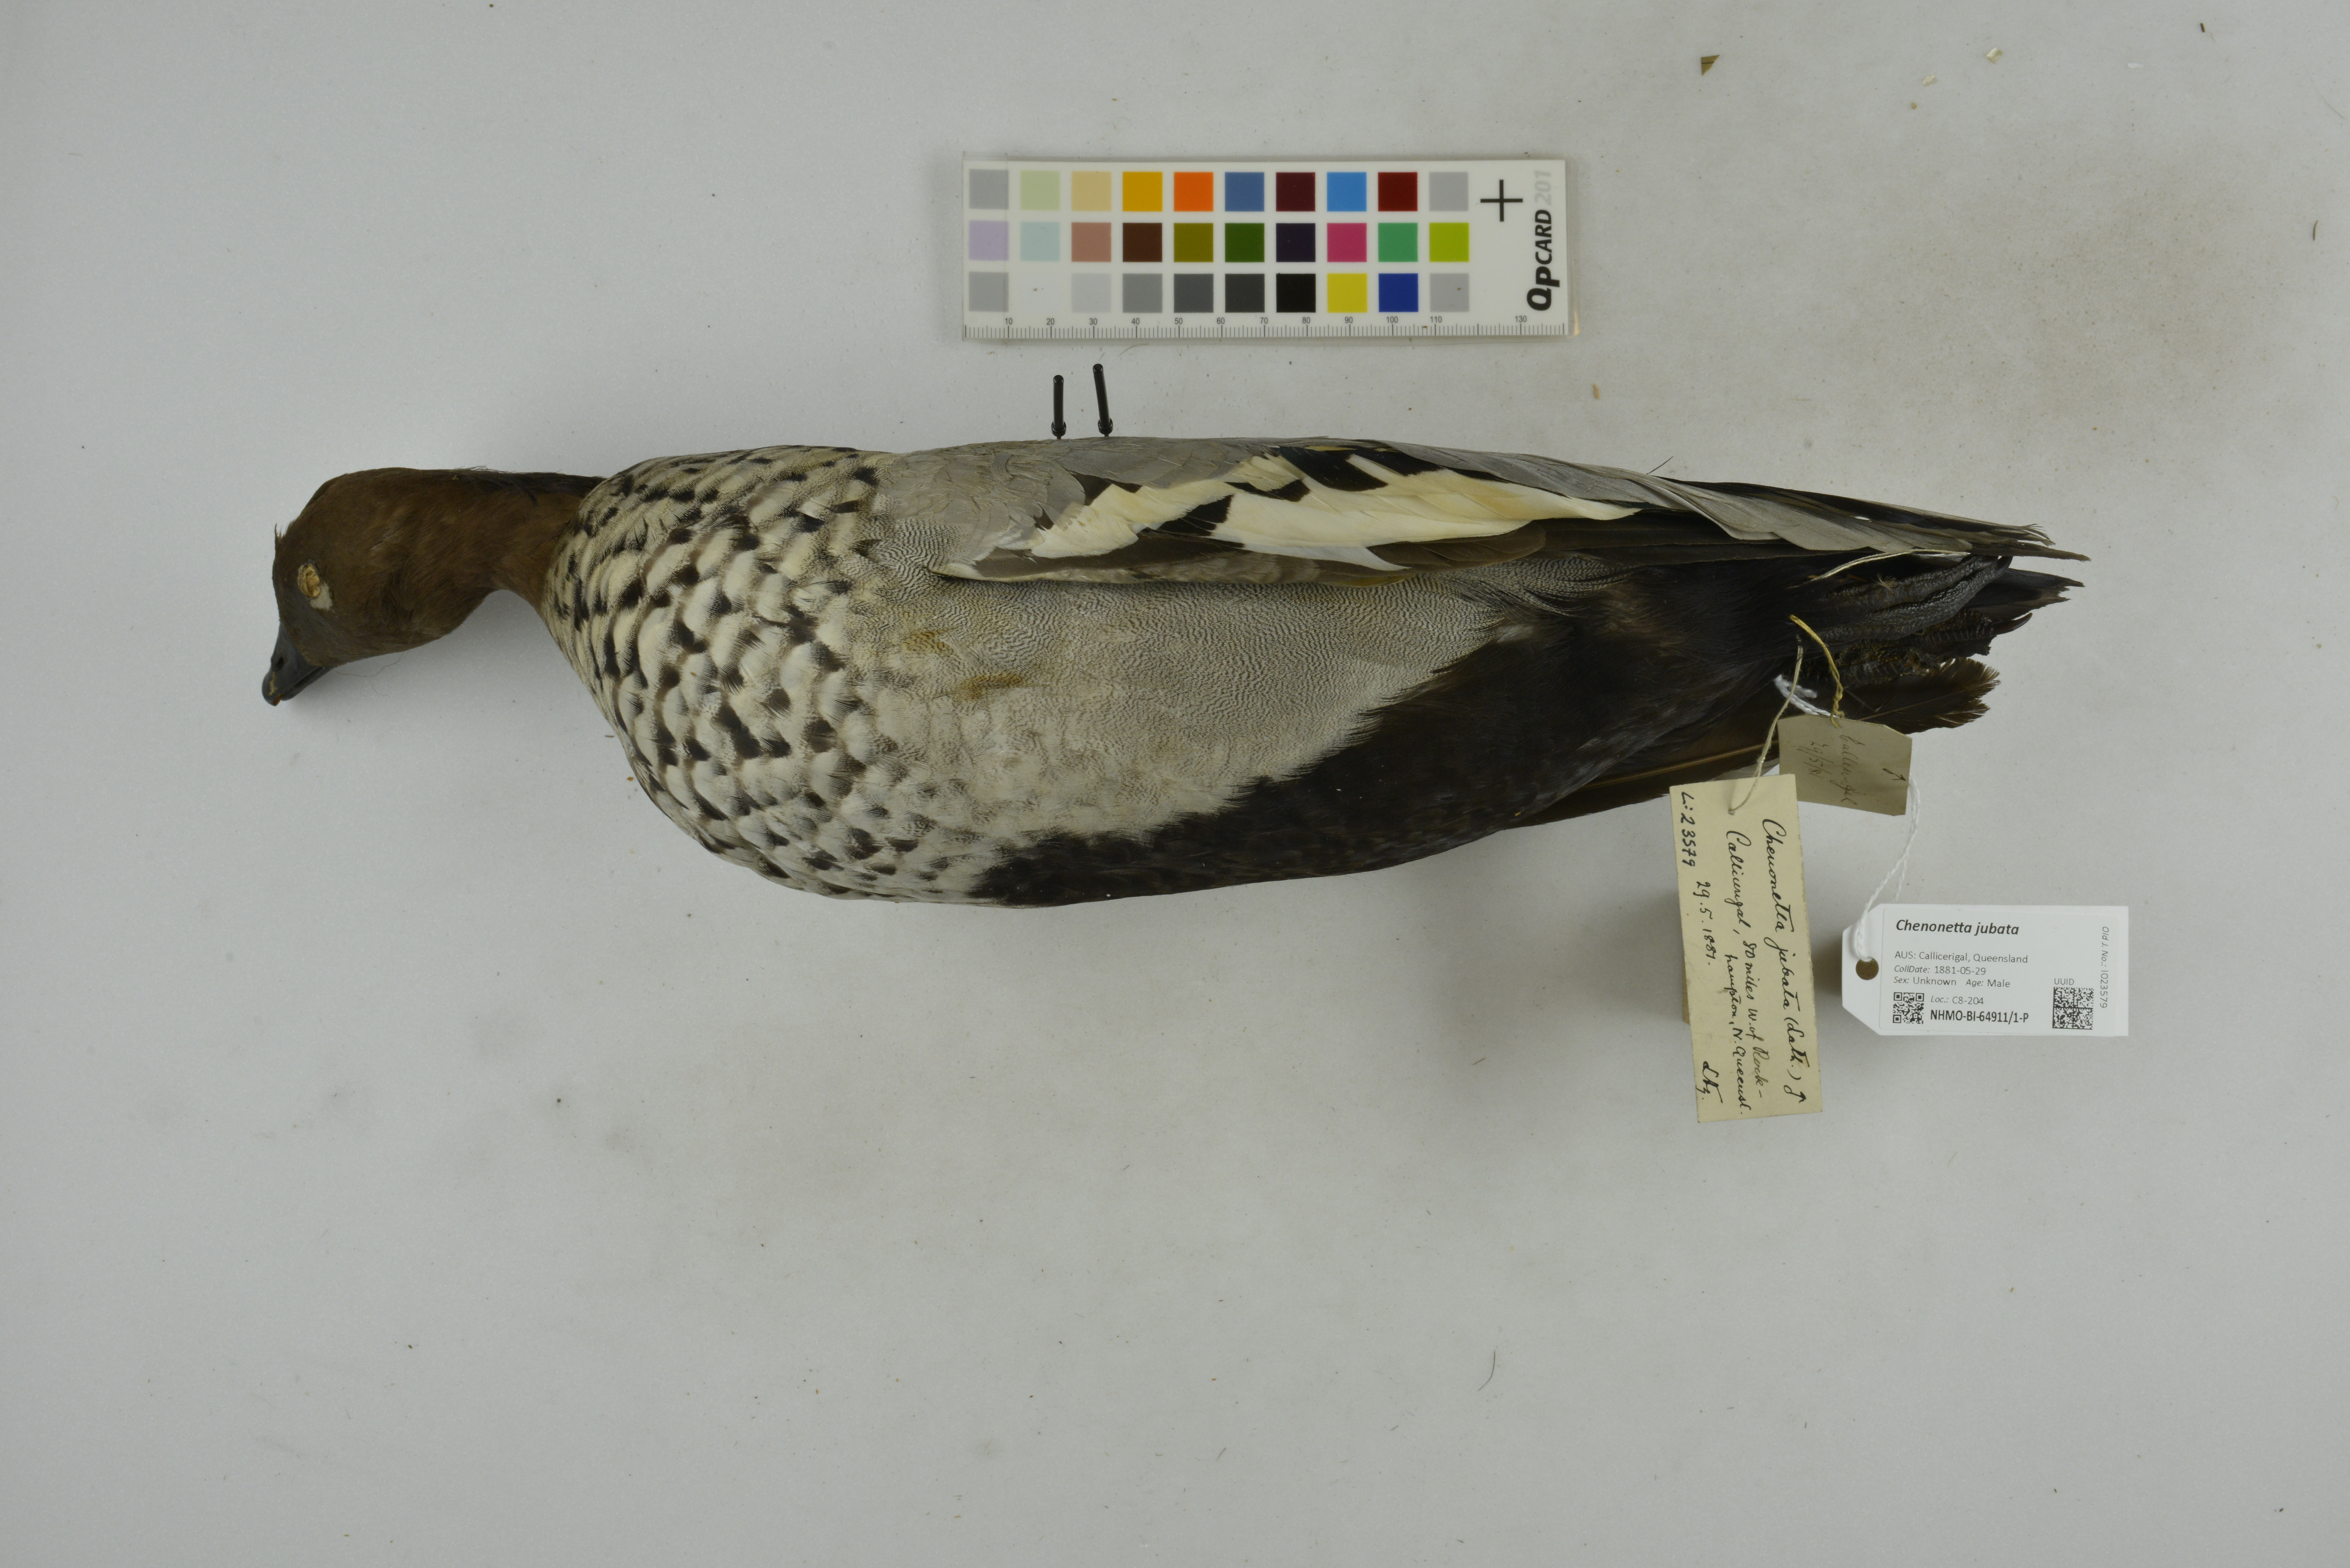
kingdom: Animalia
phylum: Chordata
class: Aves
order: Anseriformes
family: Anatidae
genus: Chenonetta
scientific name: Chenonetta jubata
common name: Maned duck
